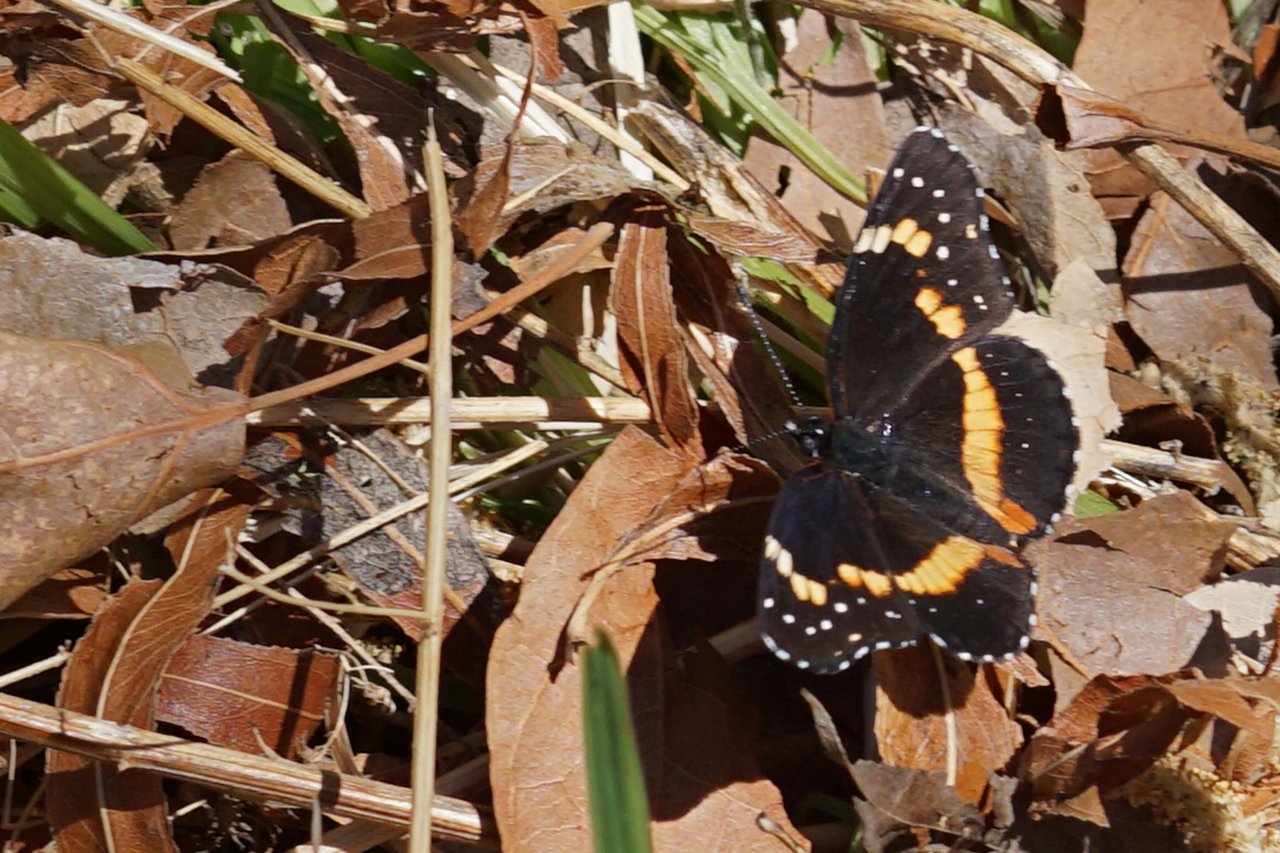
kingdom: Animalia
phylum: Arthropoda
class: Insecta
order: Lepidoptera
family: Nymphalidae
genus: Chlosyne
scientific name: Chlosyne lacinia
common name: Bordered Patch
